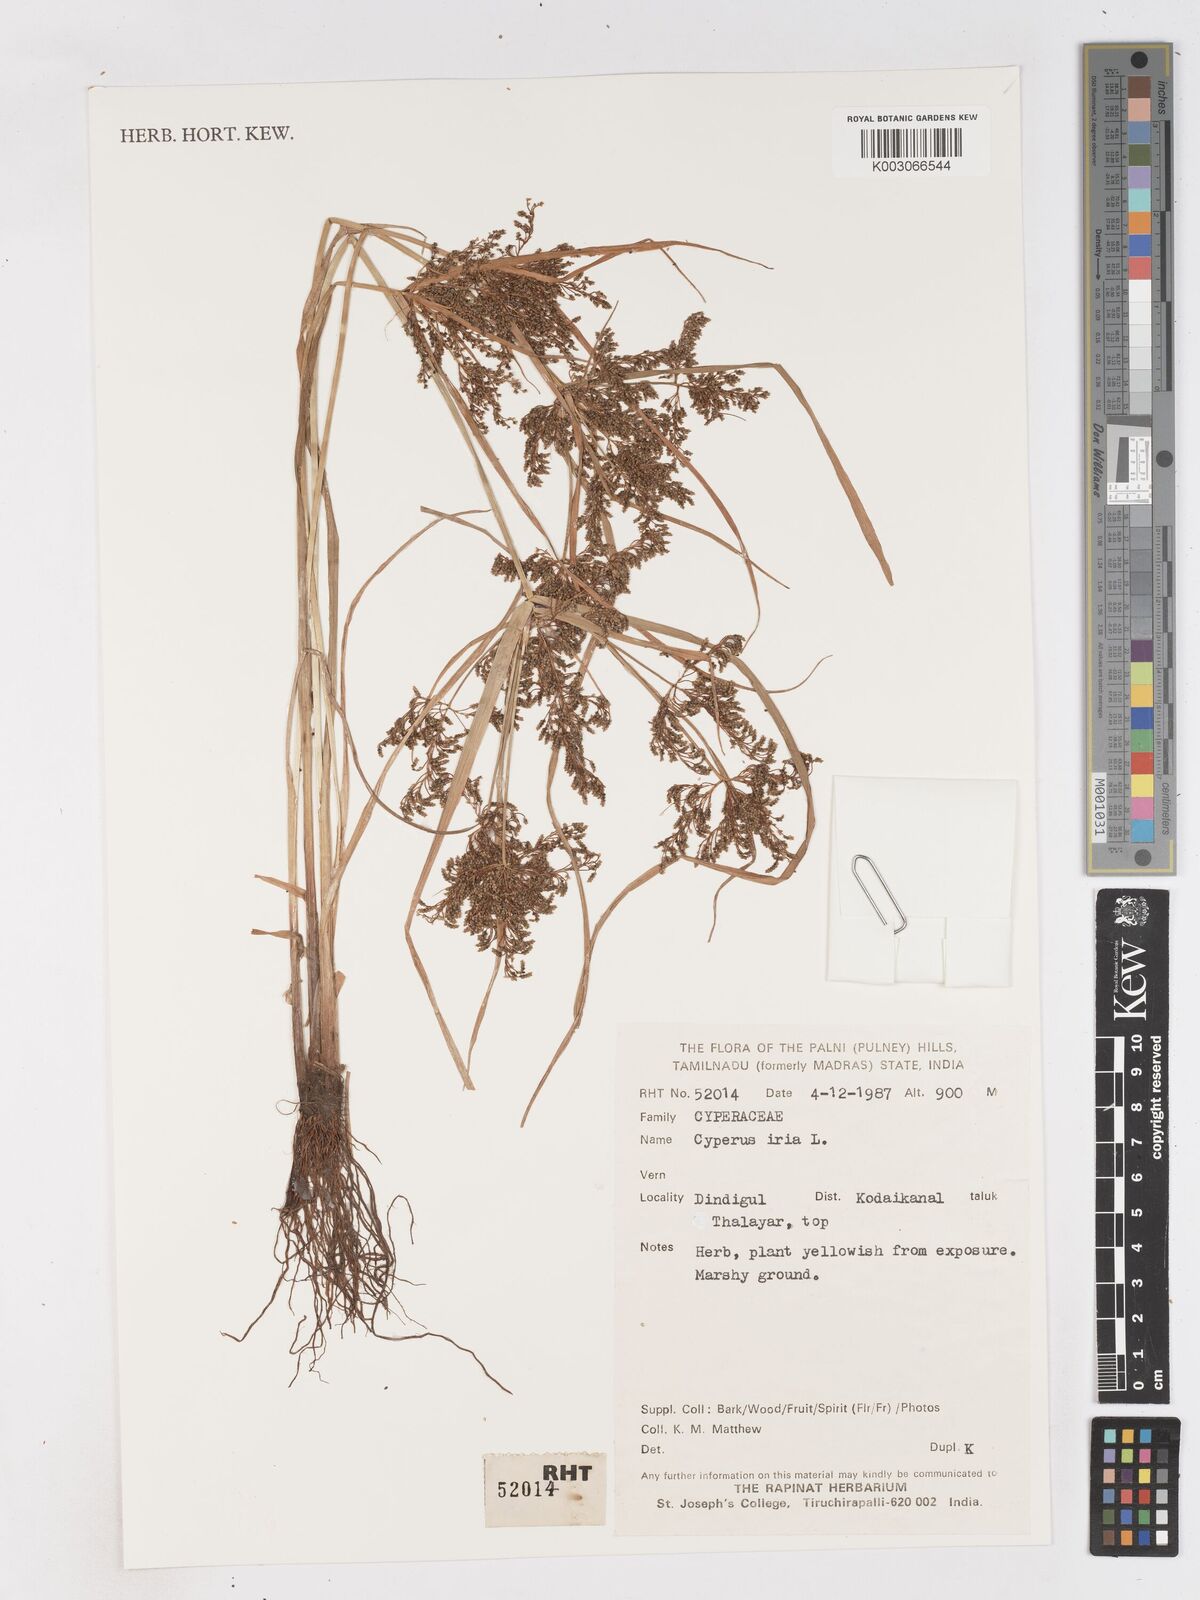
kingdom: Plantae
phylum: Tracheophyta
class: Liliopsida
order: Poales
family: Cyperaceae
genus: Cyperus
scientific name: Cyperus iria
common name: Ricefield flatsedge
